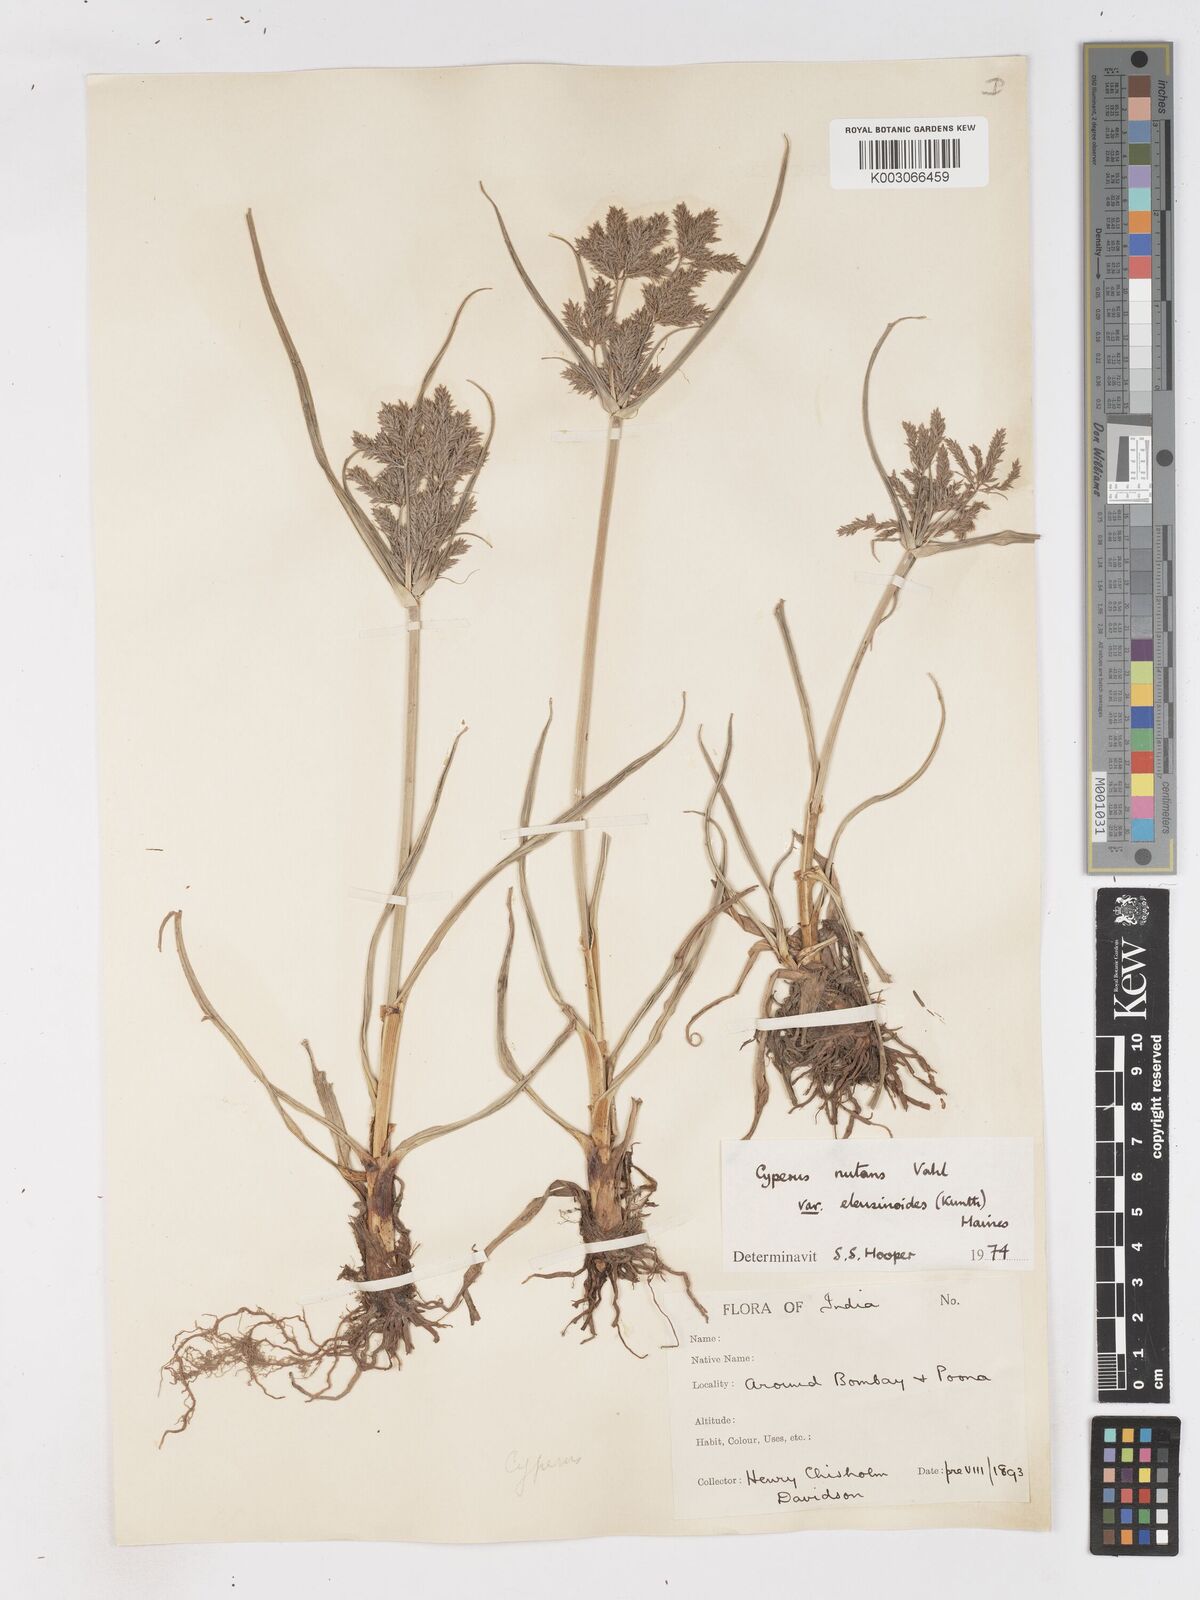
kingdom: Plantae
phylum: Tracheophyta
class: Liliopsida
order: Poales
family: Cyperaceae
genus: Cyperus
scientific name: Cyperus nutans
